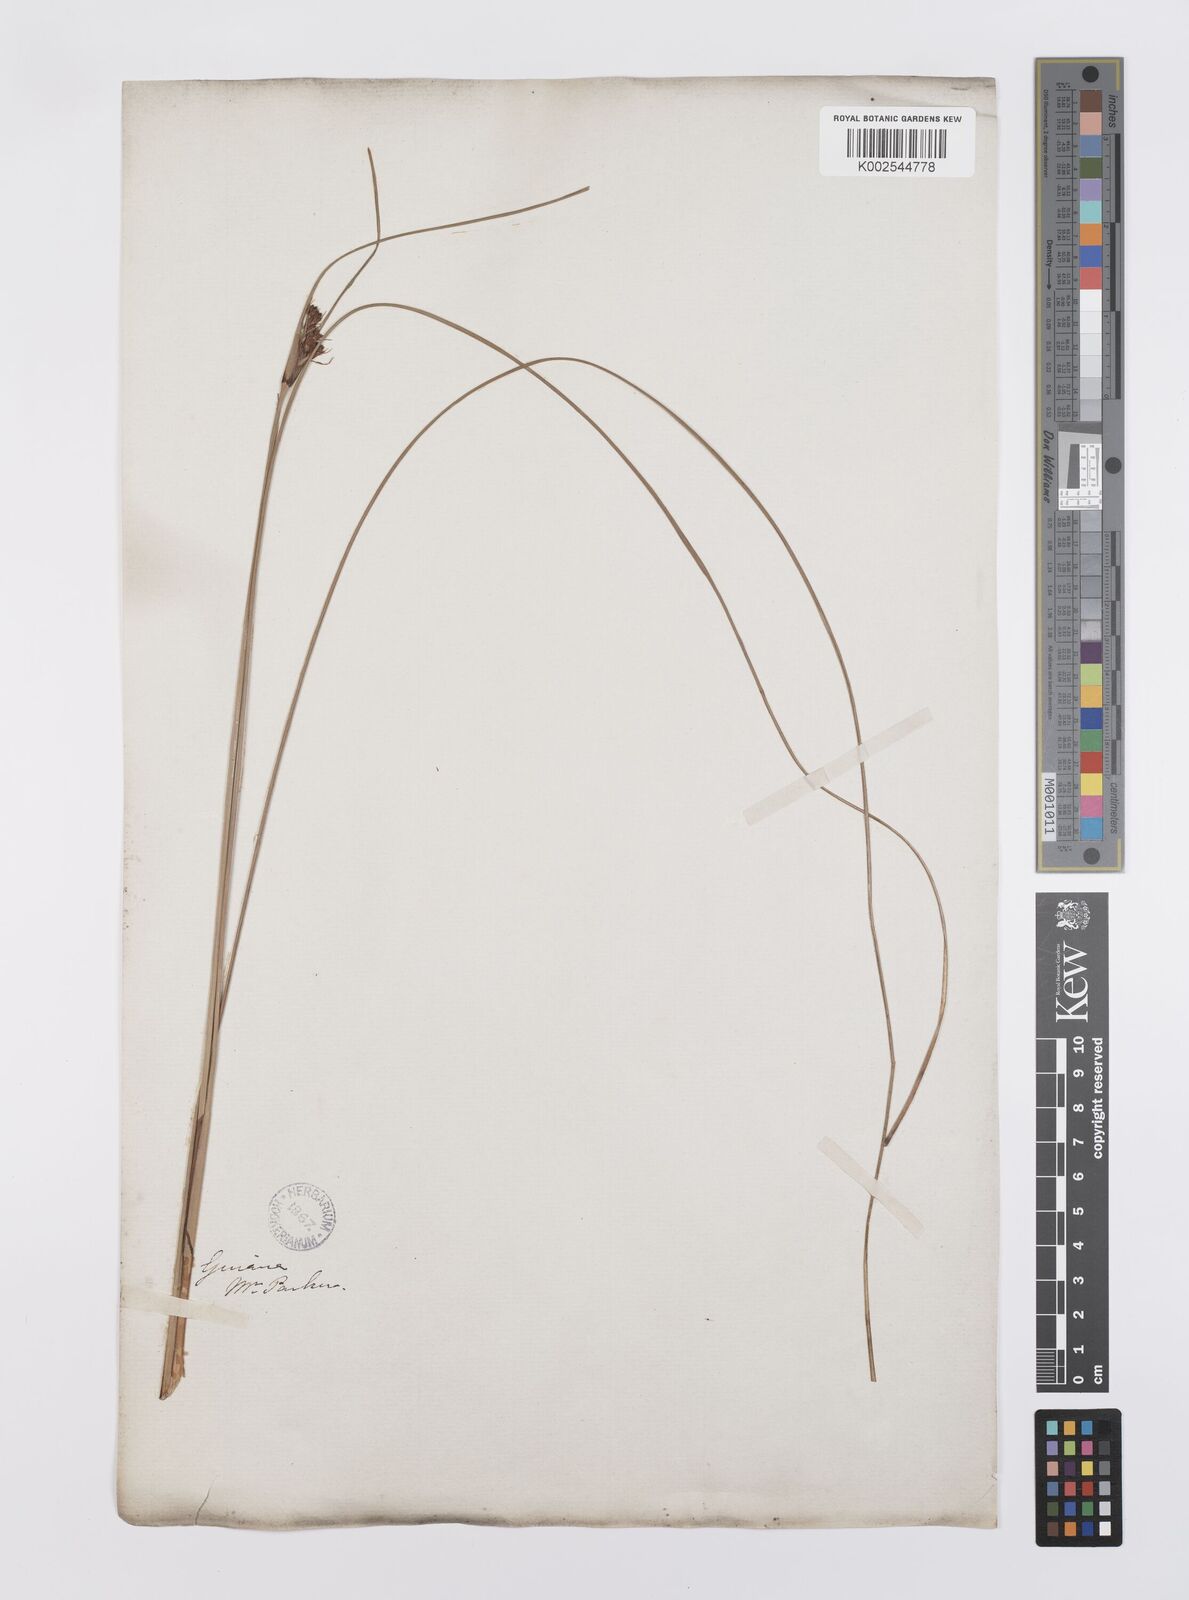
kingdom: Plantae
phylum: Tracheophyta
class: Liliopsida
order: Poales
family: Cyperaceae
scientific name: Cyperaceae
